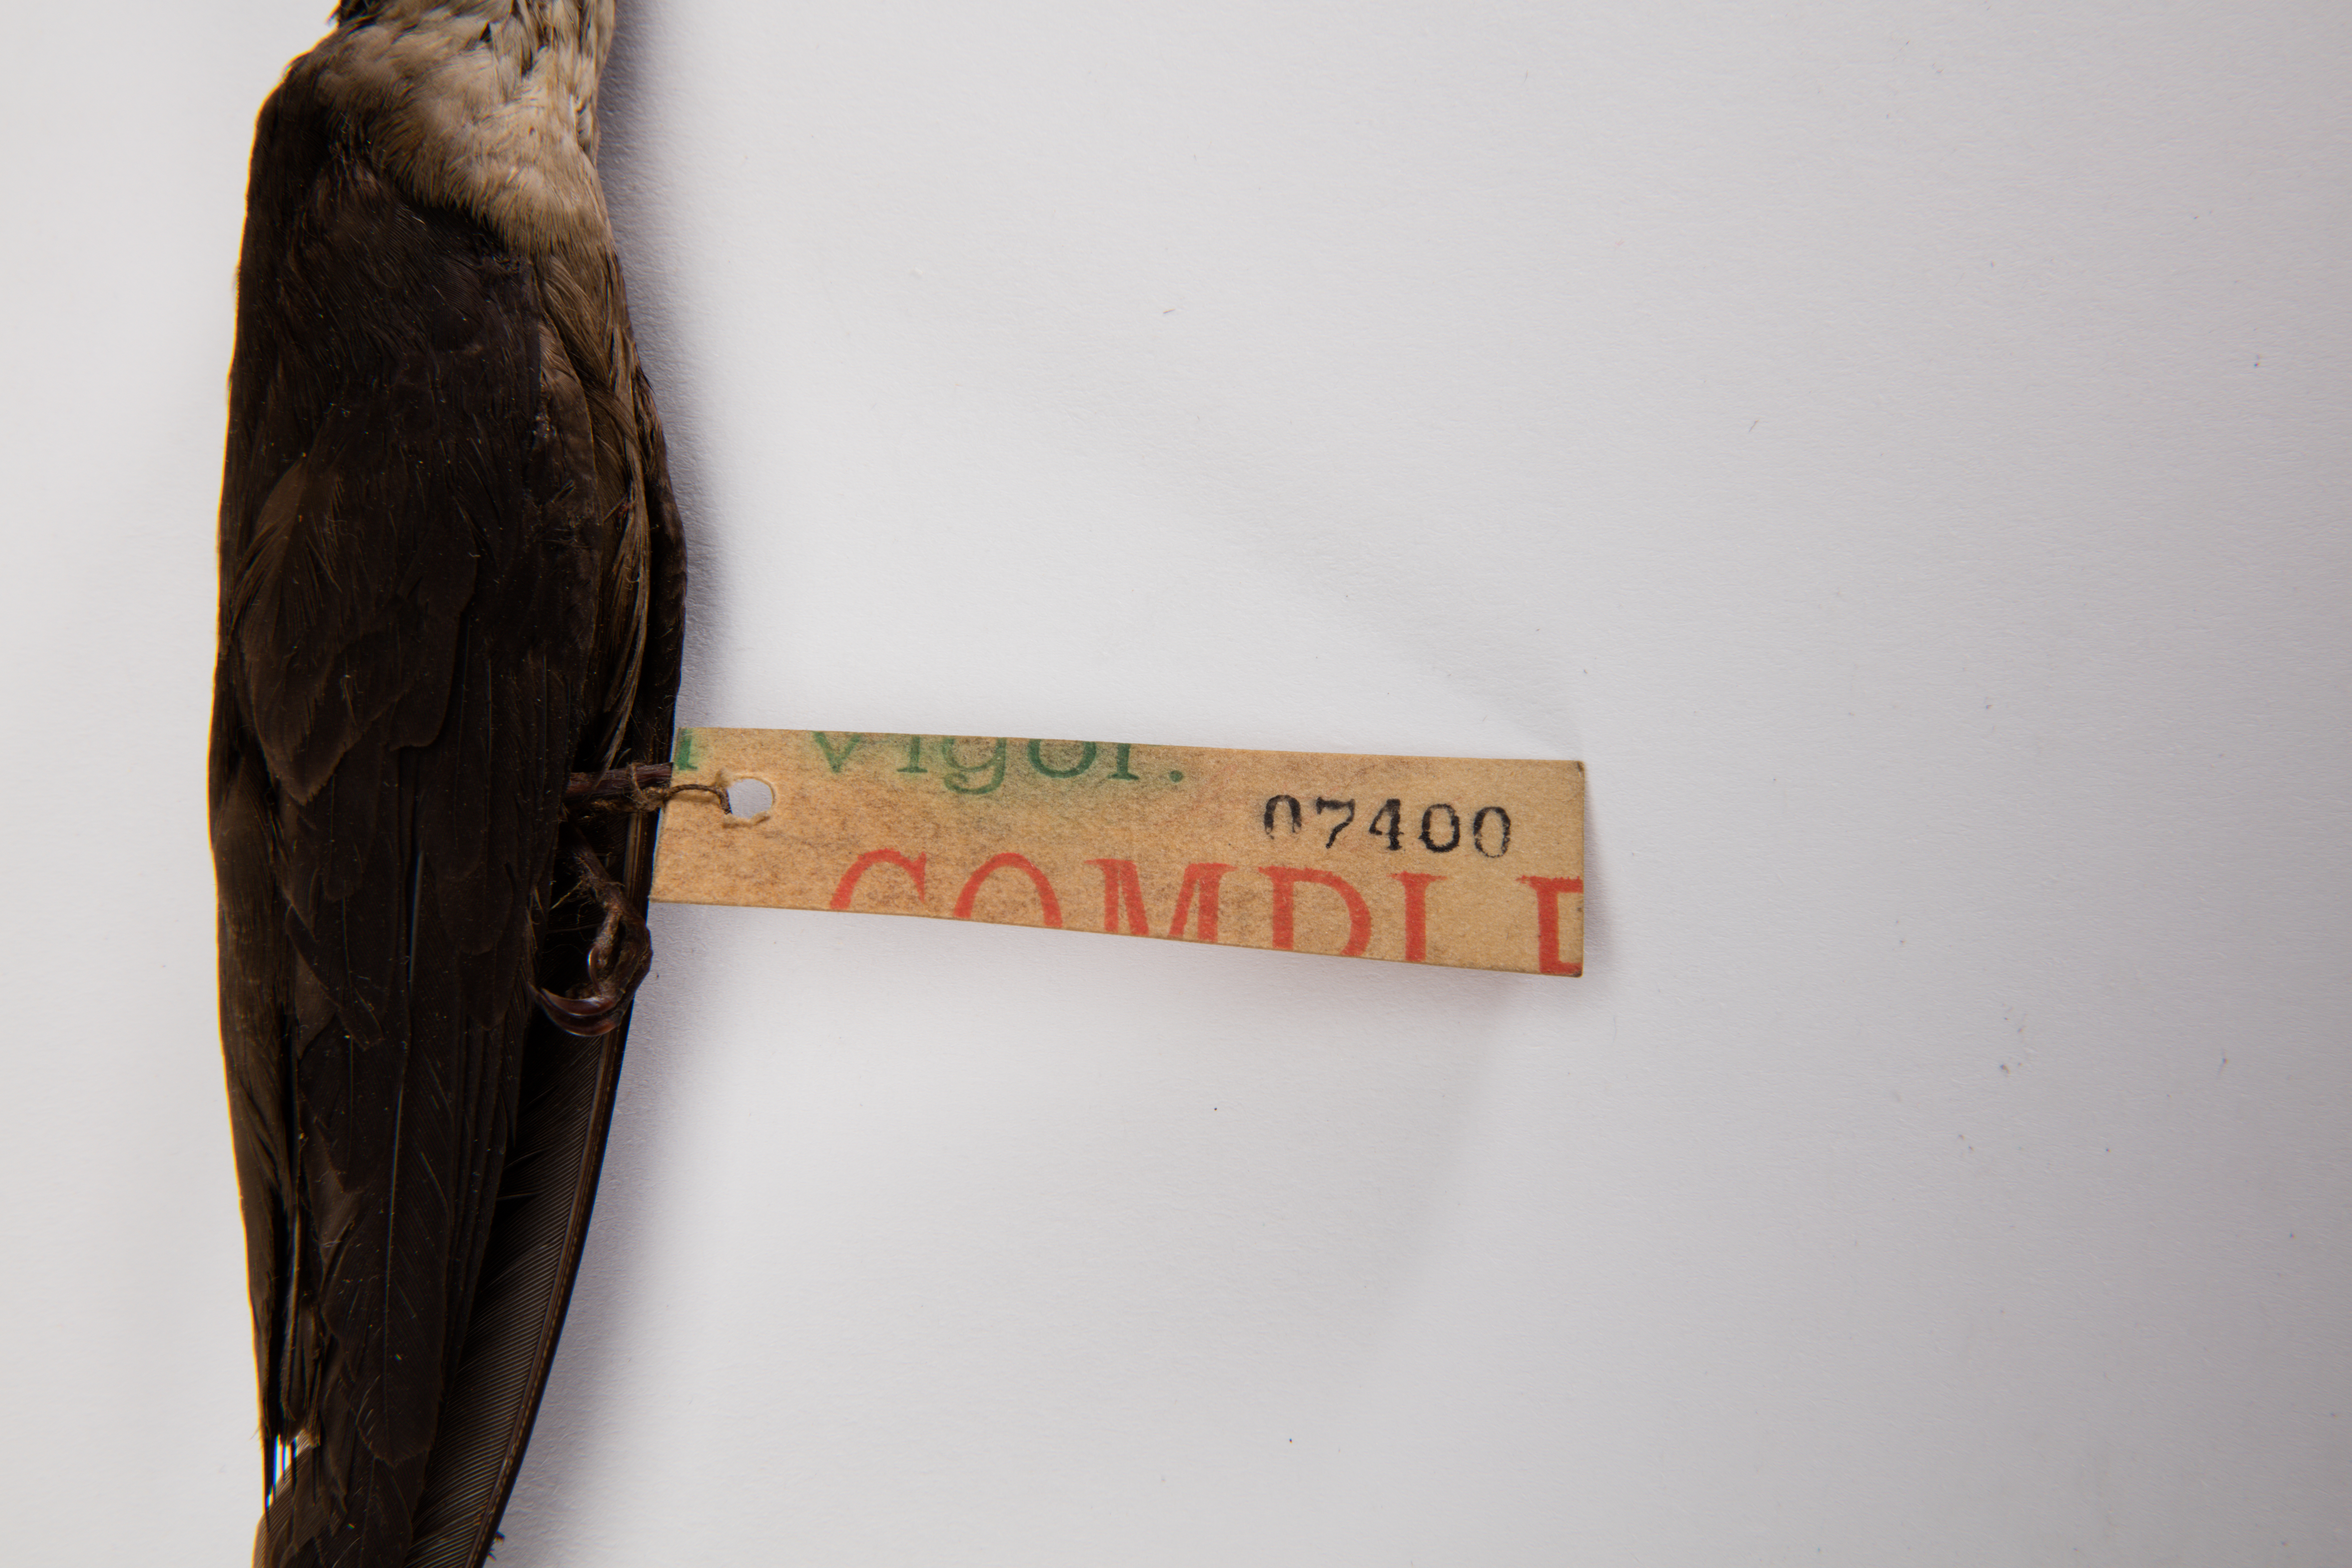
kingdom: Animalia
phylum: Chordata
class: Aves
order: Apodiformes
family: Apodidae
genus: Chaetura
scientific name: Chaetura pelagica
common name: Chimney swift
